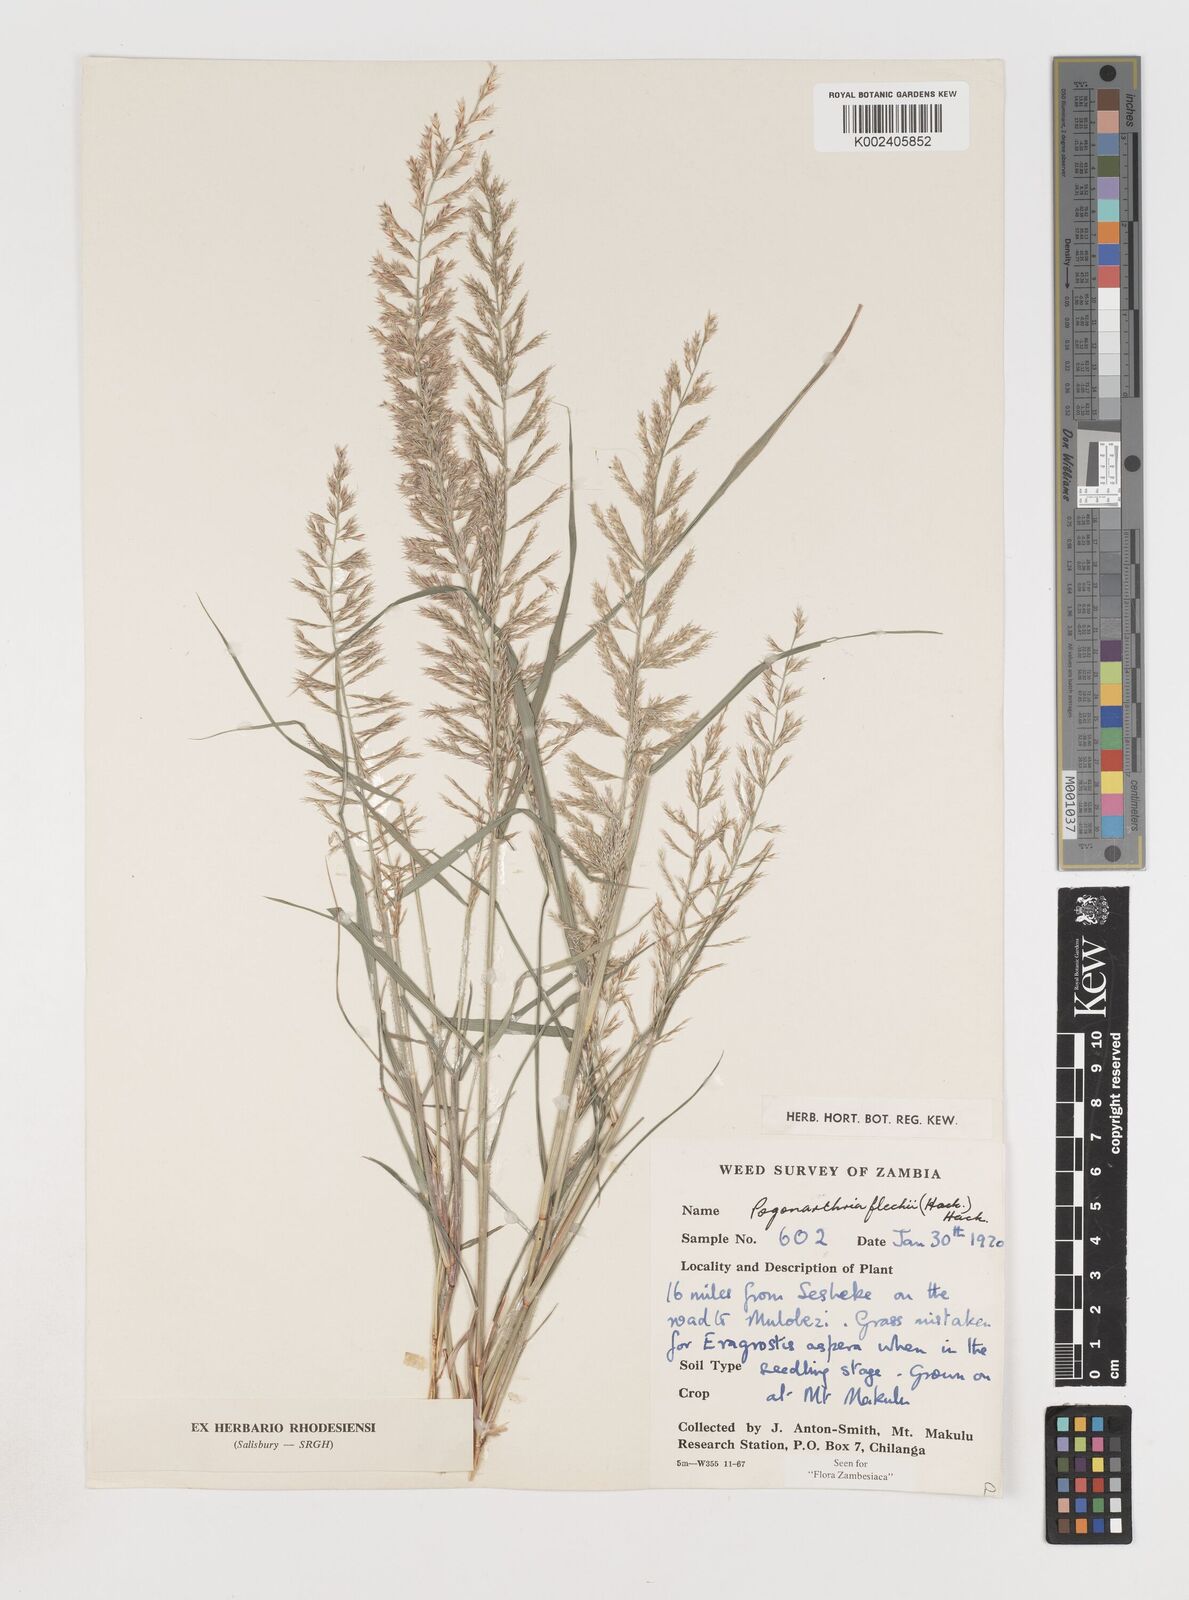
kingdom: Plantae
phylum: Tracheophyta
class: Liliopsida
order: Poales
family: Poaceae
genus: Pogonarthria
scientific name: Pogonarthria fleckii
